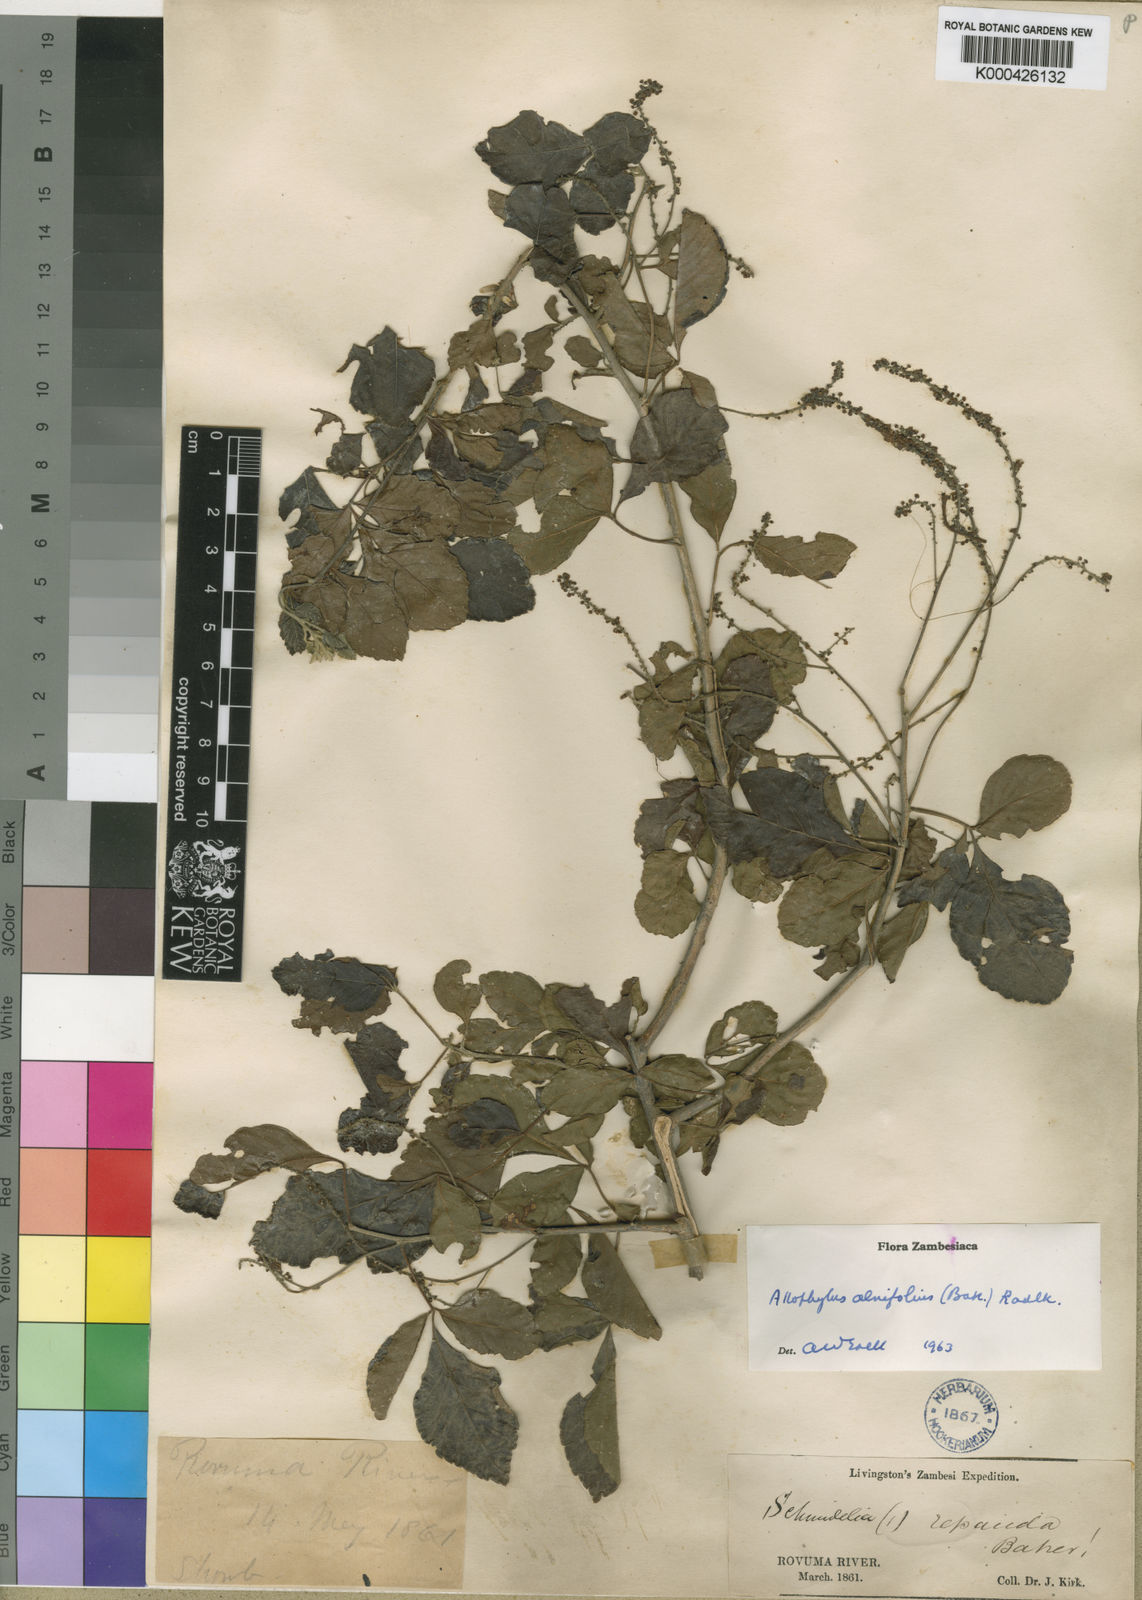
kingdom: Plantae
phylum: Tracheophyta
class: Magnoliopsida
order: Sapindales
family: Sapindaceae
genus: Allophylus
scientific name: Allophylus
